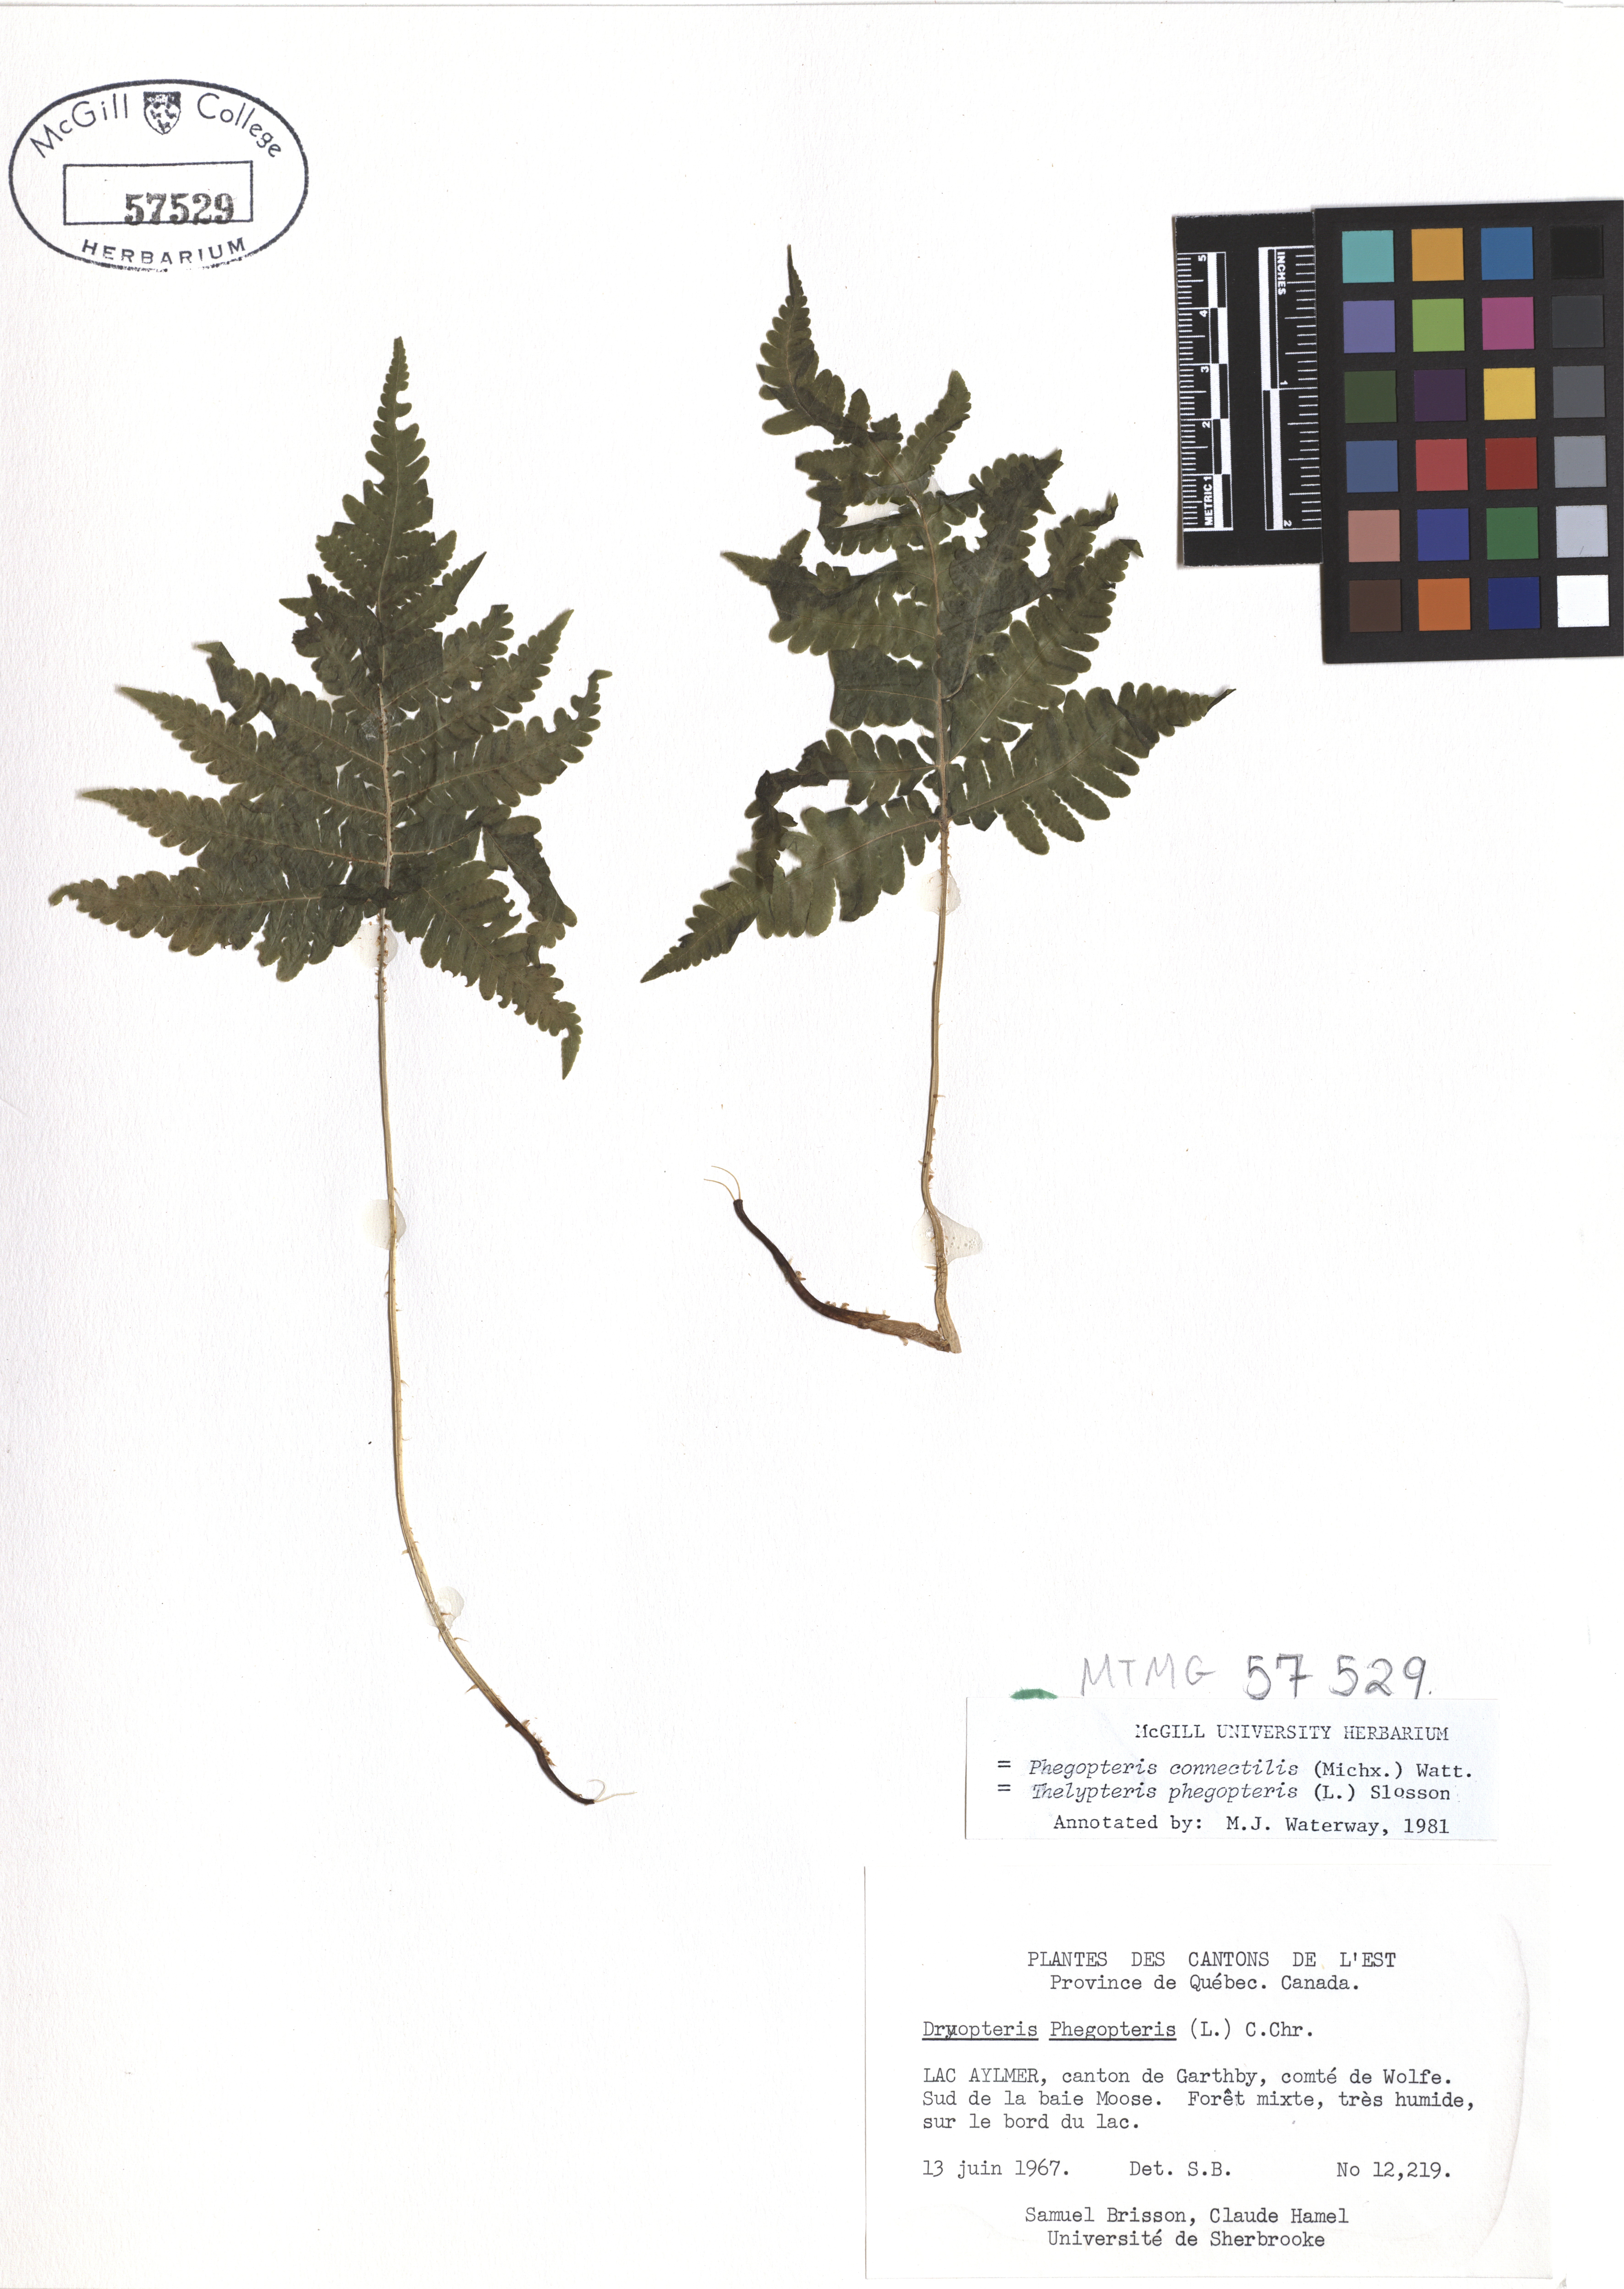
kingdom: Plantae
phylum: Tracheophyta
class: Polypodiopsida
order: Polypodiales
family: Thelypteridaceae
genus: Phegopteris
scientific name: Phegopteris connectilis
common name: Beech fern
